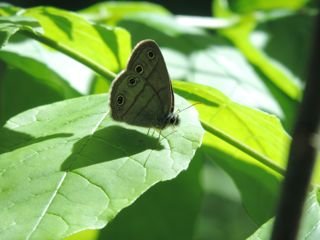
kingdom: Animalia
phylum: Arthropoda
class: Insecta
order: Lepidoptera
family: Nymphalidae
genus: Euptychia
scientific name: Euptychia cymela
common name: Little Wood Satyr
